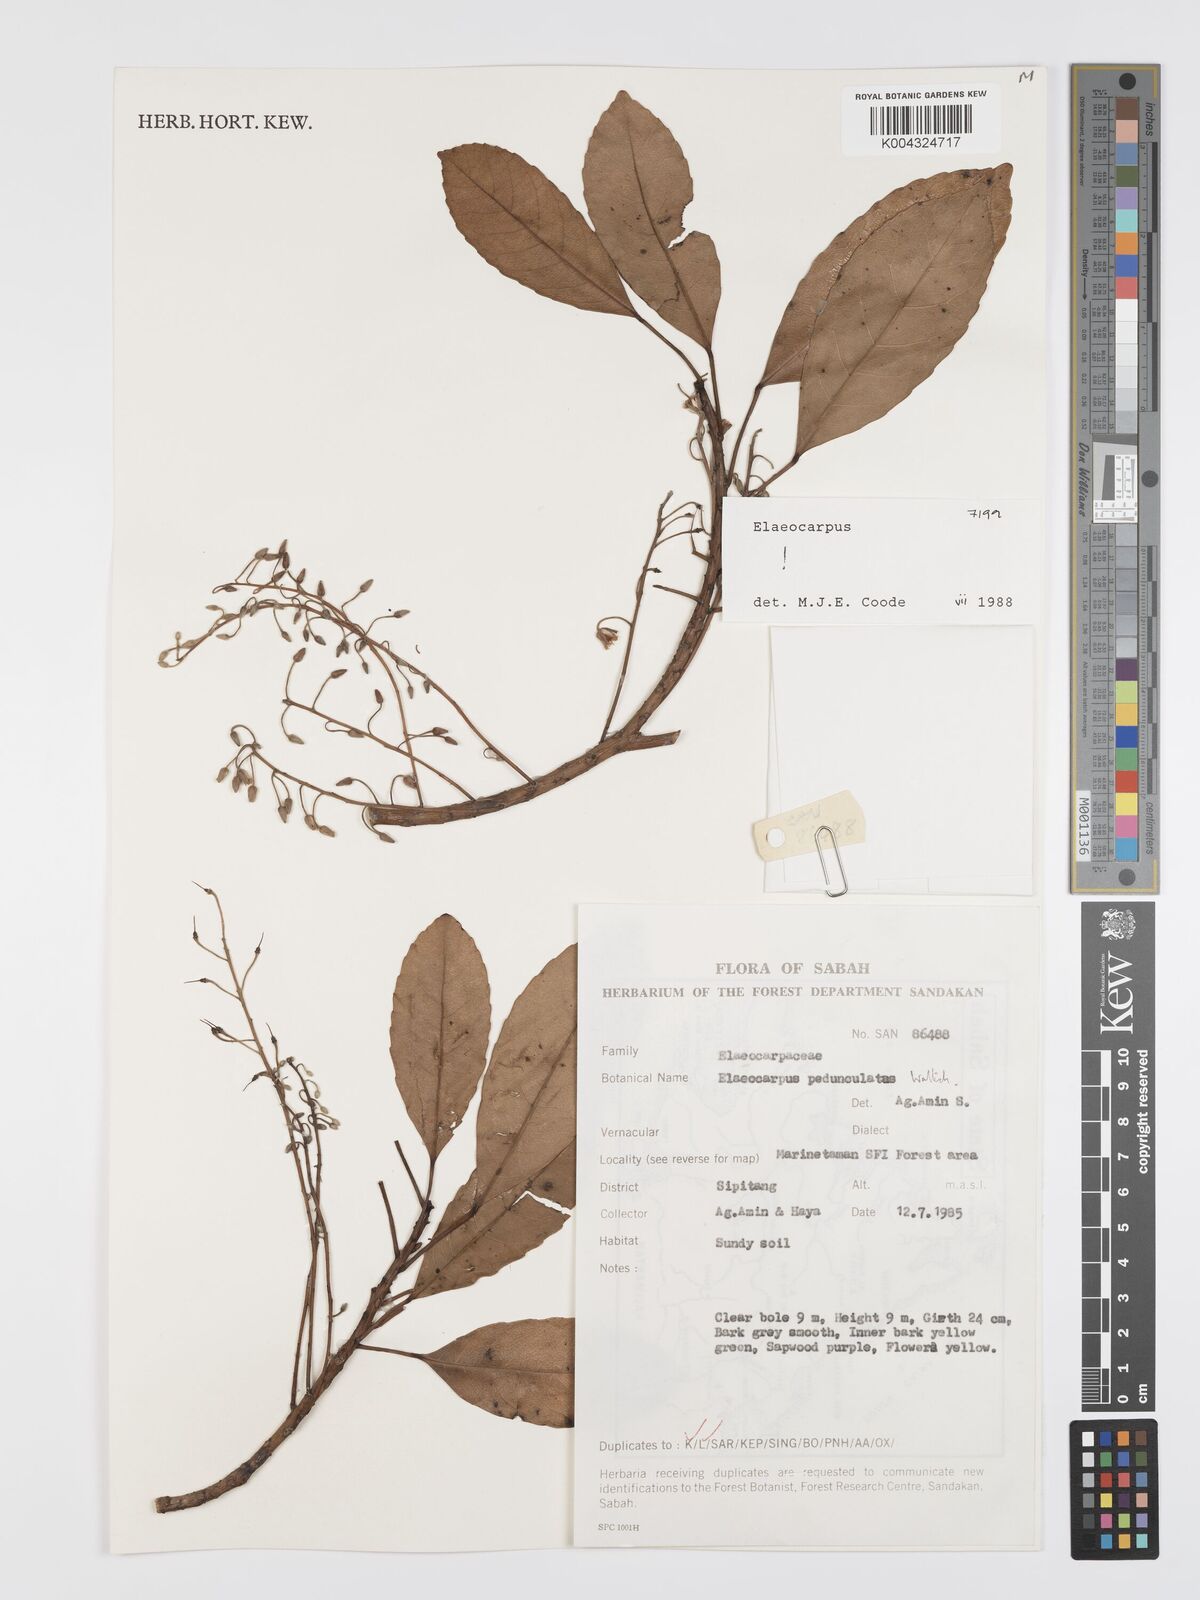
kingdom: Plantae
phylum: Tracheophyta
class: Magnoliopsida
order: Oxalidales
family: Elaeocarpaceae
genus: Elaeocarpus
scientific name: Elaeocarpus pedunculatus
